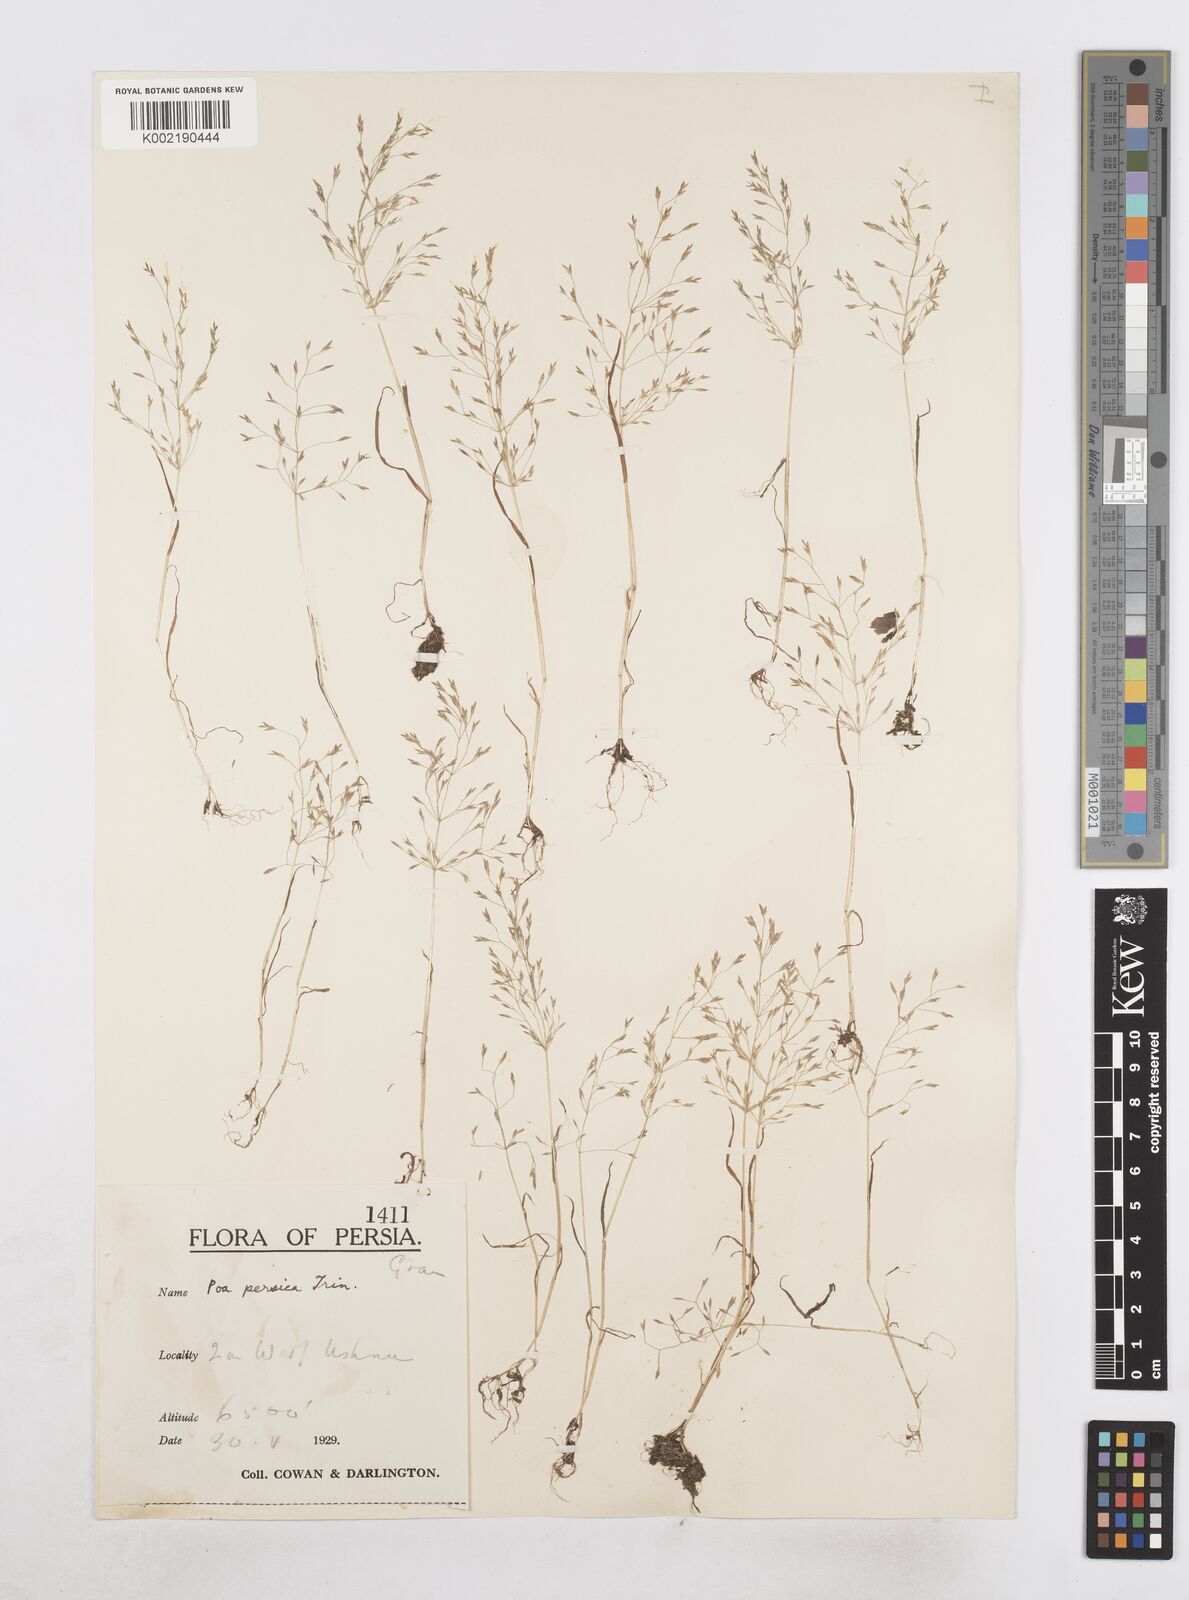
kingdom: Plantae
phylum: Tracheophyta
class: Liliopsida
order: Poales
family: Poaceae
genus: Poa
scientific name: Poa diaphora
